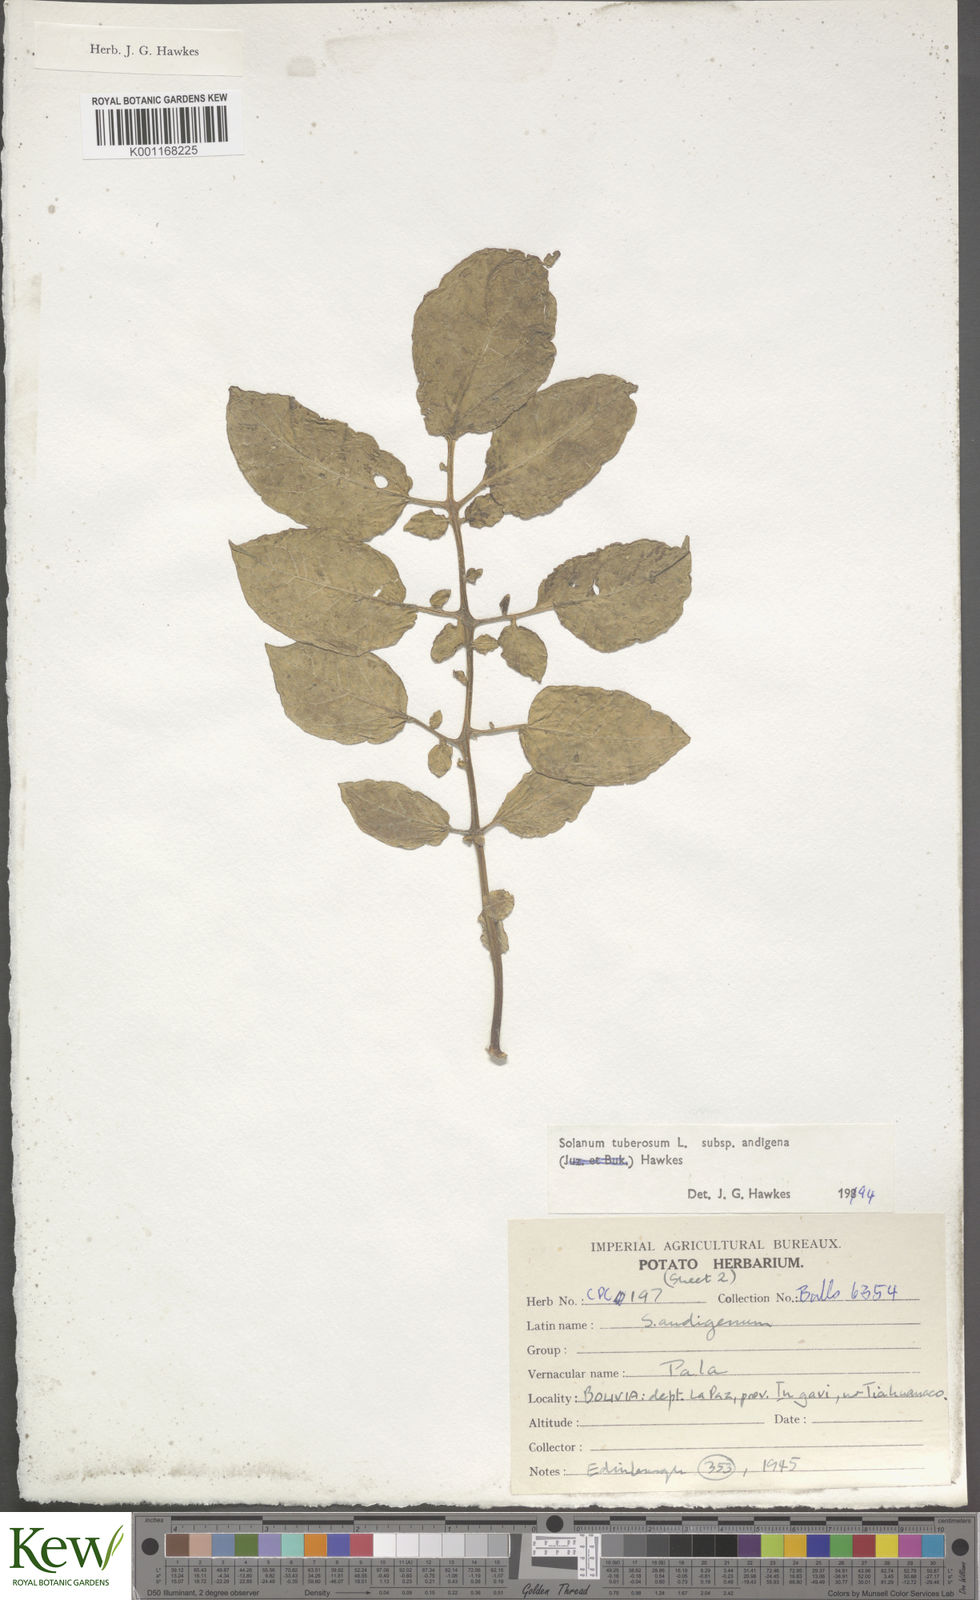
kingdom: Plantae
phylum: Tracheophyta
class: Magnoliopsida
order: Solanales
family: Solanaceae
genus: Solanum
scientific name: Solanum tuberosum
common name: Potato
